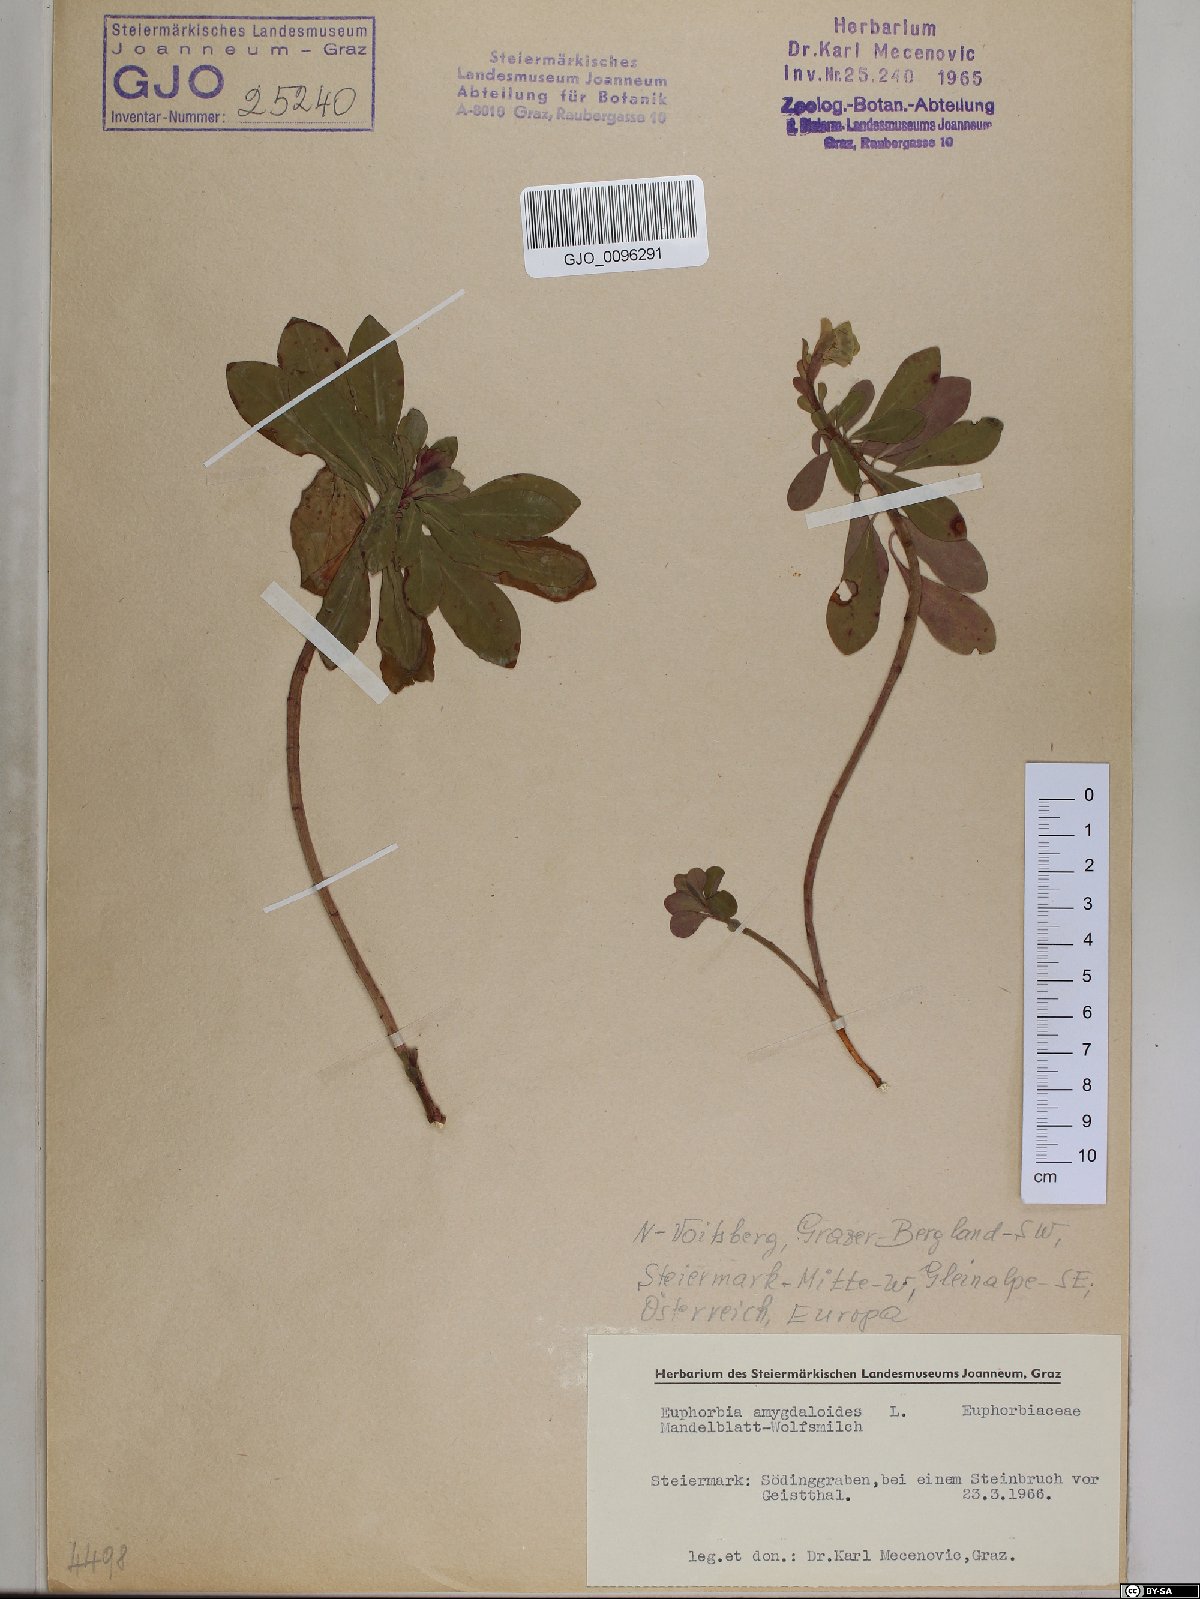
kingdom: Plantae
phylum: Tracheophyta
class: Magnoliopsida
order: Malpighiales
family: Euphorbiaceae
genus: Euphorbia
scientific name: Euphorbia amygdaloides
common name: Wood spurge
